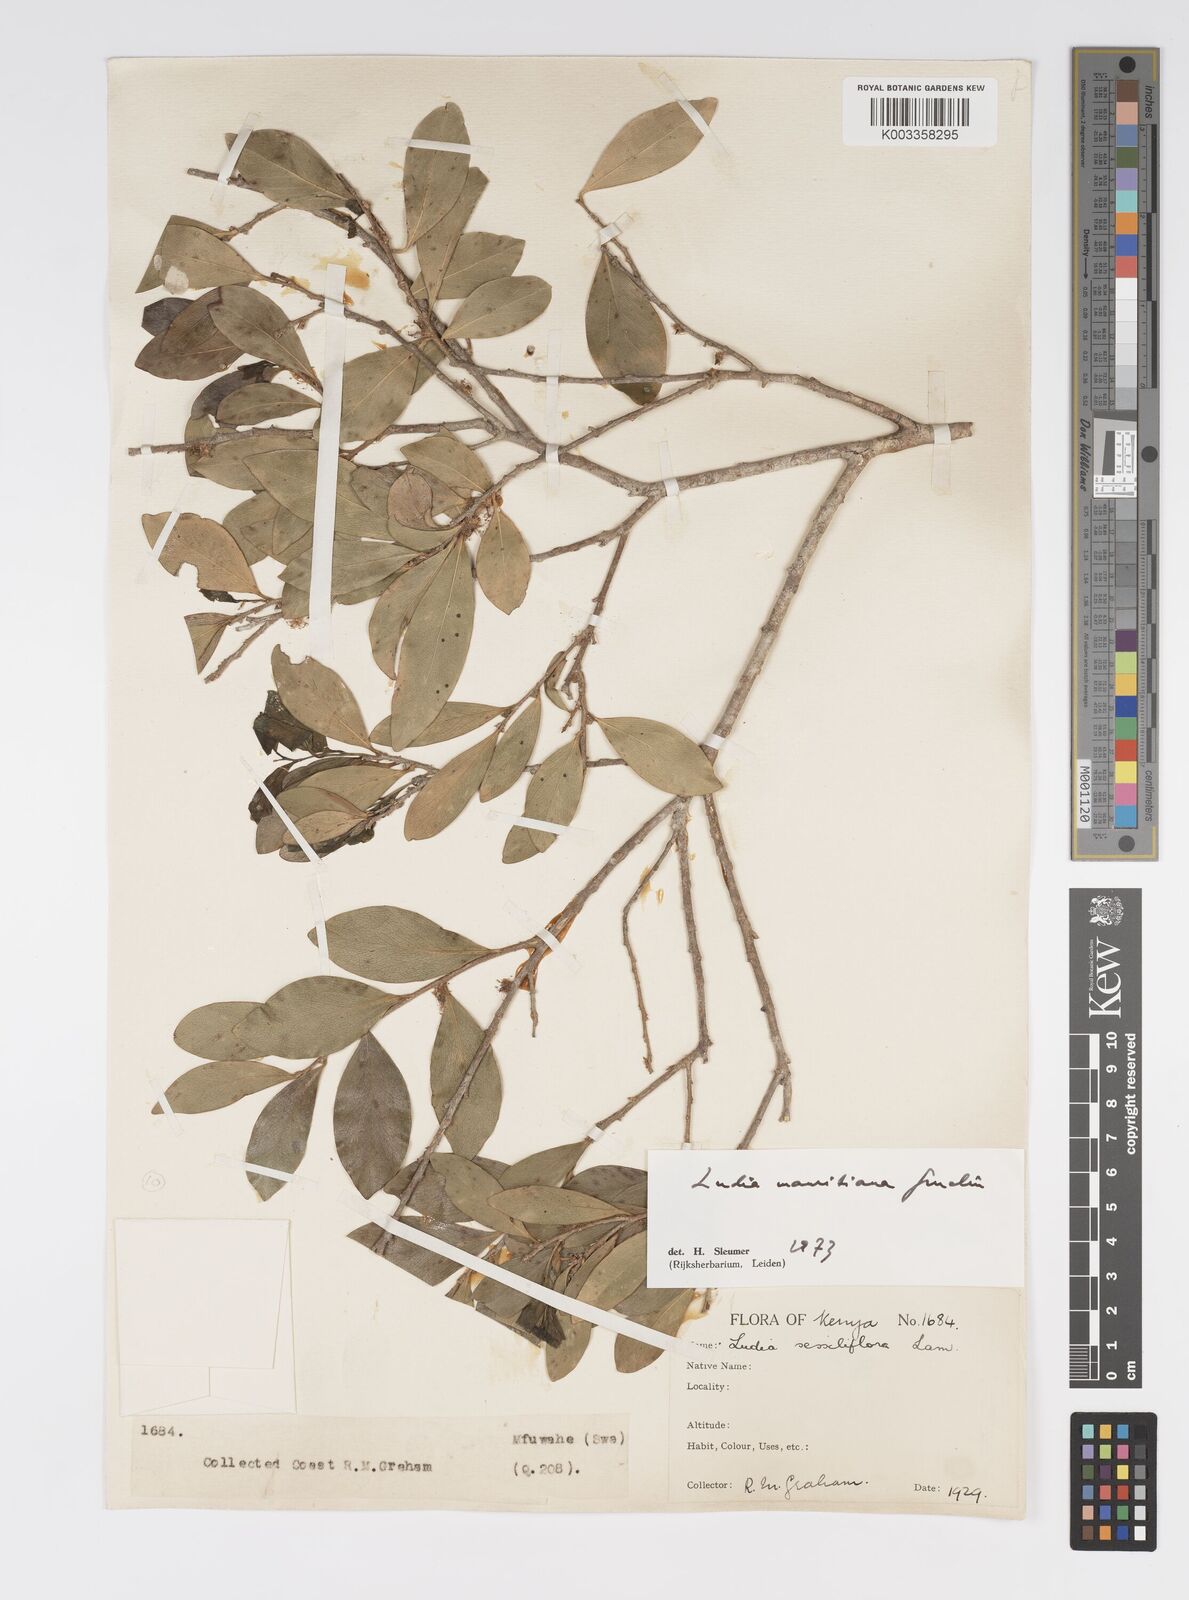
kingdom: Plantae
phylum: Tracheophyta
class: Magnoliopsida
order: Malpighiales
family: Salicaceae
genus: Ludia
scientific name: Ludia mauritiana
